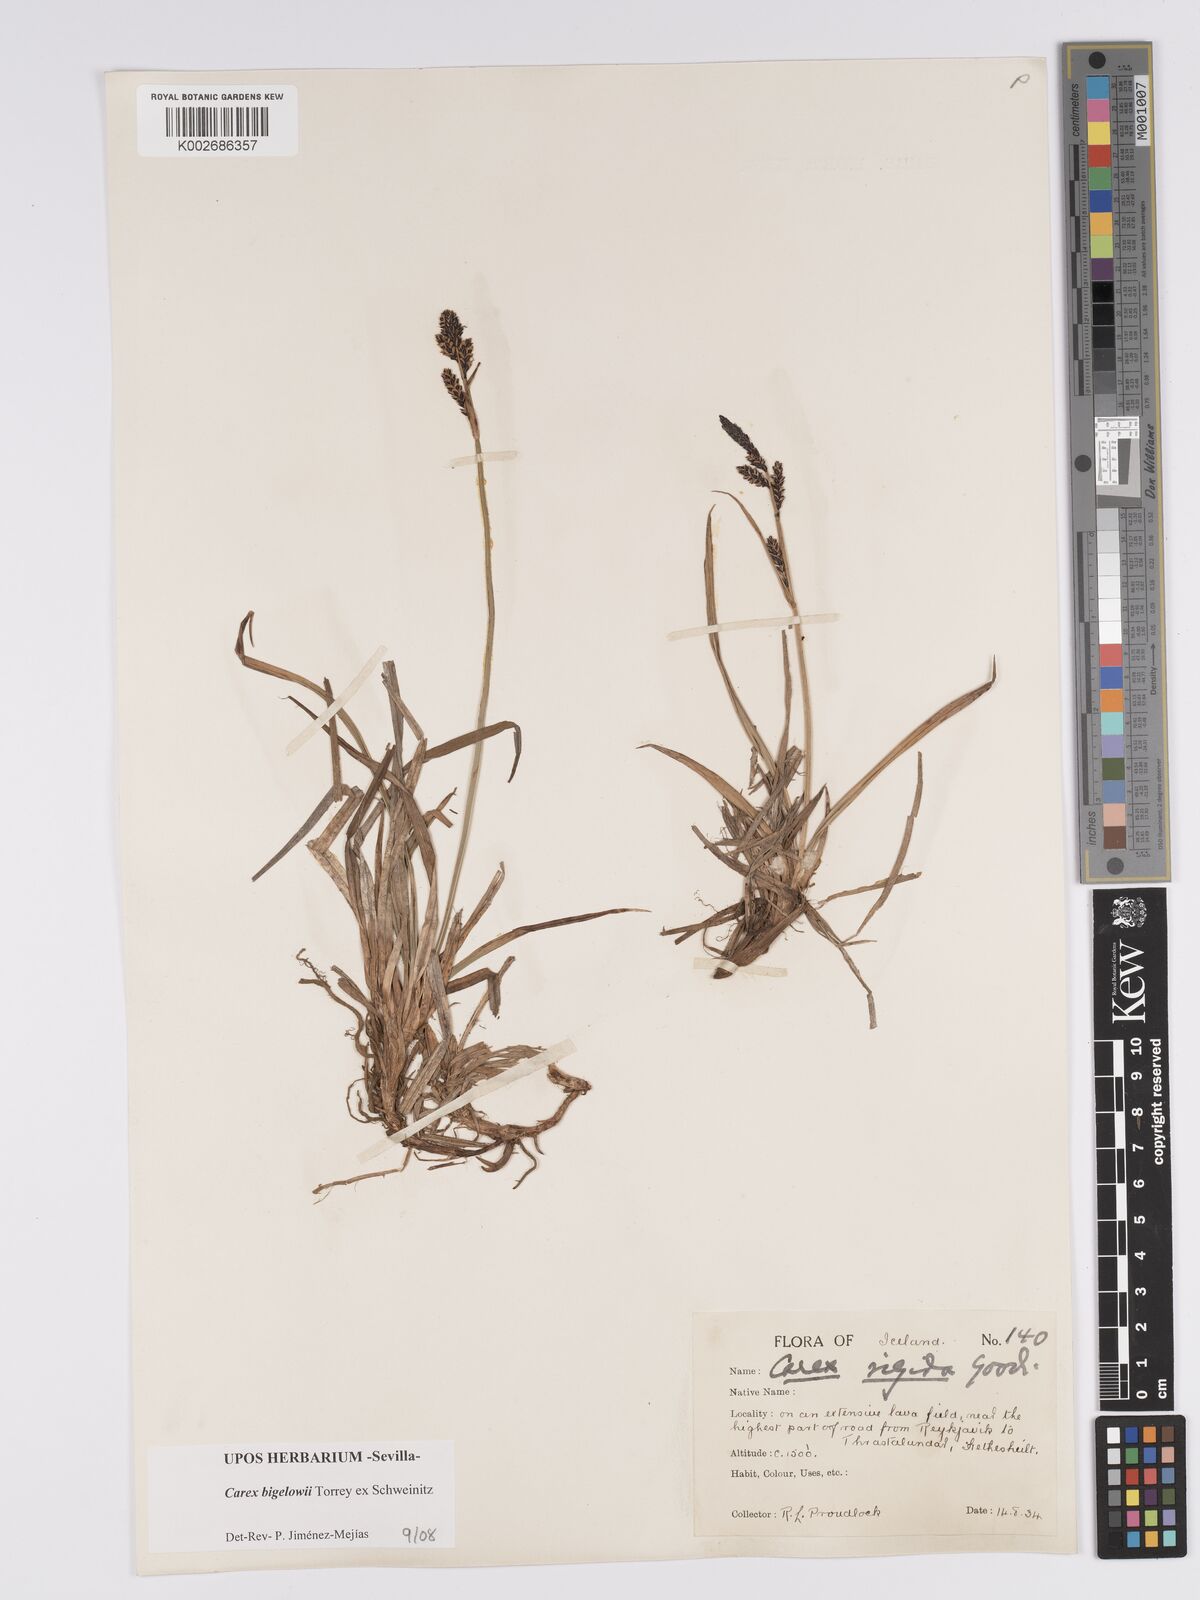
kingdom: Plantae
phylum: Tracheophyta
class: Liliopsida
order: Poales
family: Cyperaceae
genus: Carex
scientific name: Carex bigelowii
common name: Stiff sedge
